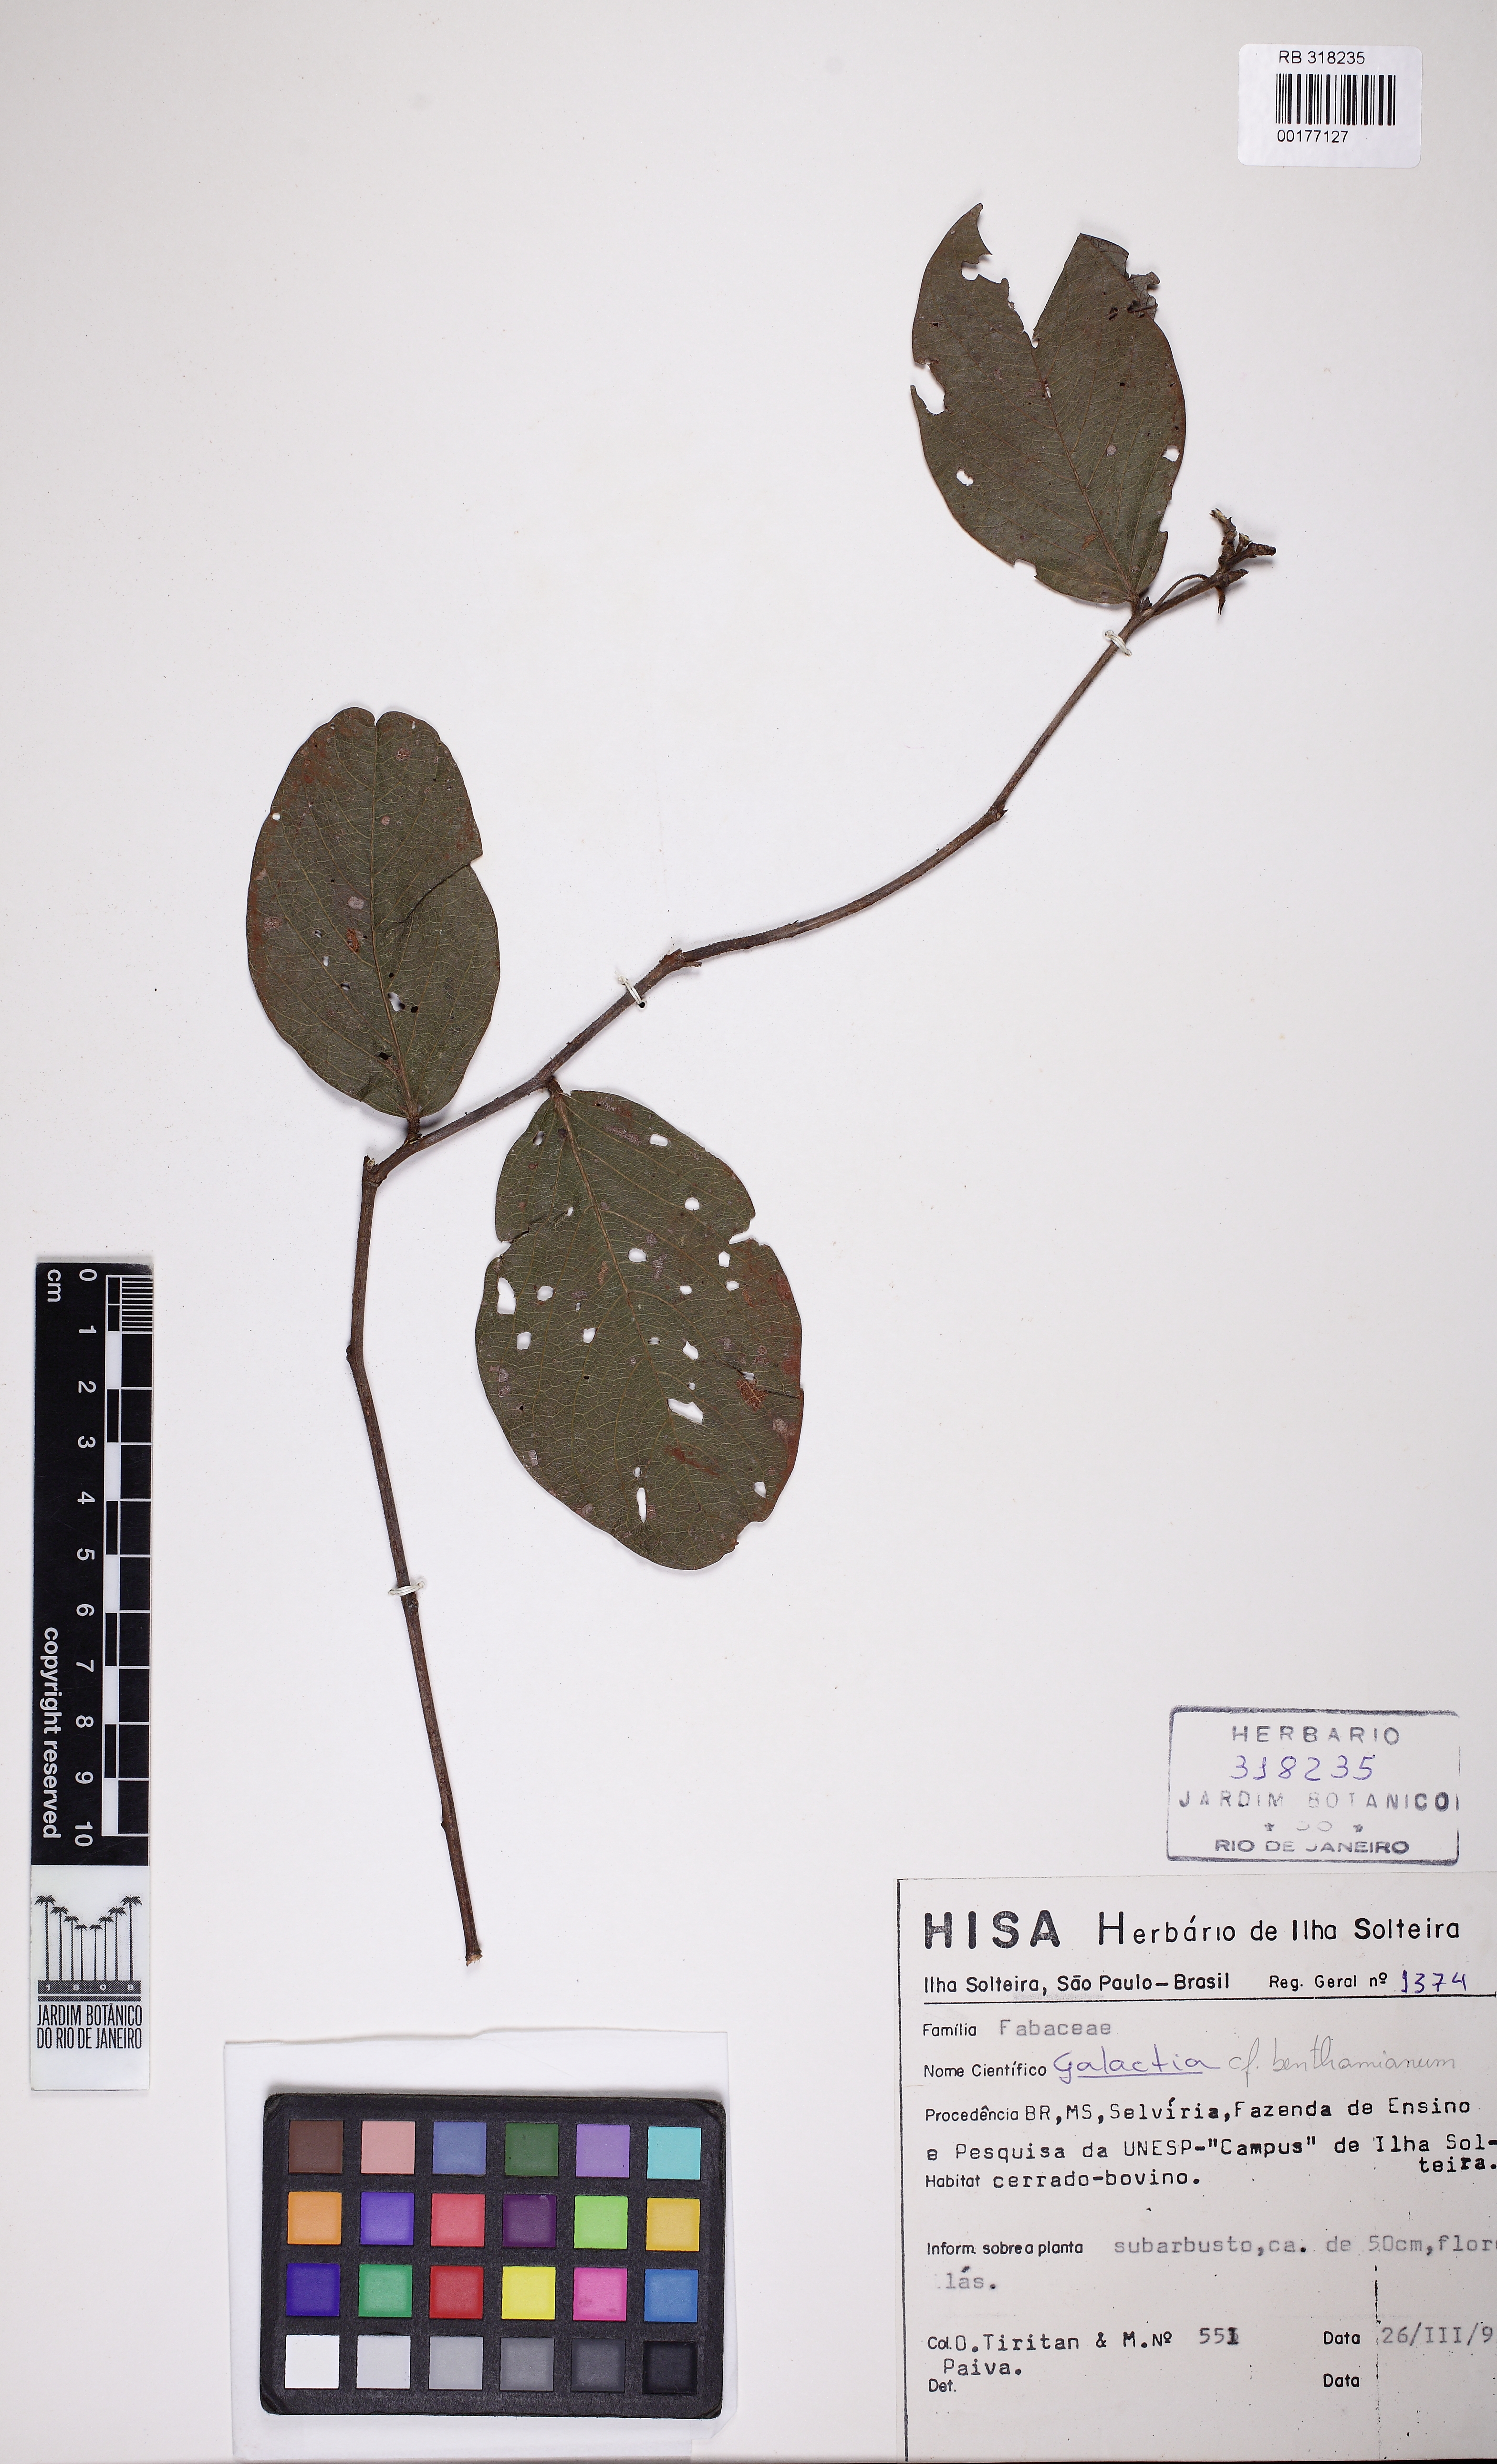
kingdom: Plantae
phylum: Tracheophyta
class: Magnoliopsida
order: Fabales
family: Fabaceae
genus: Galactia
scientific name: Galactia benthamiana
